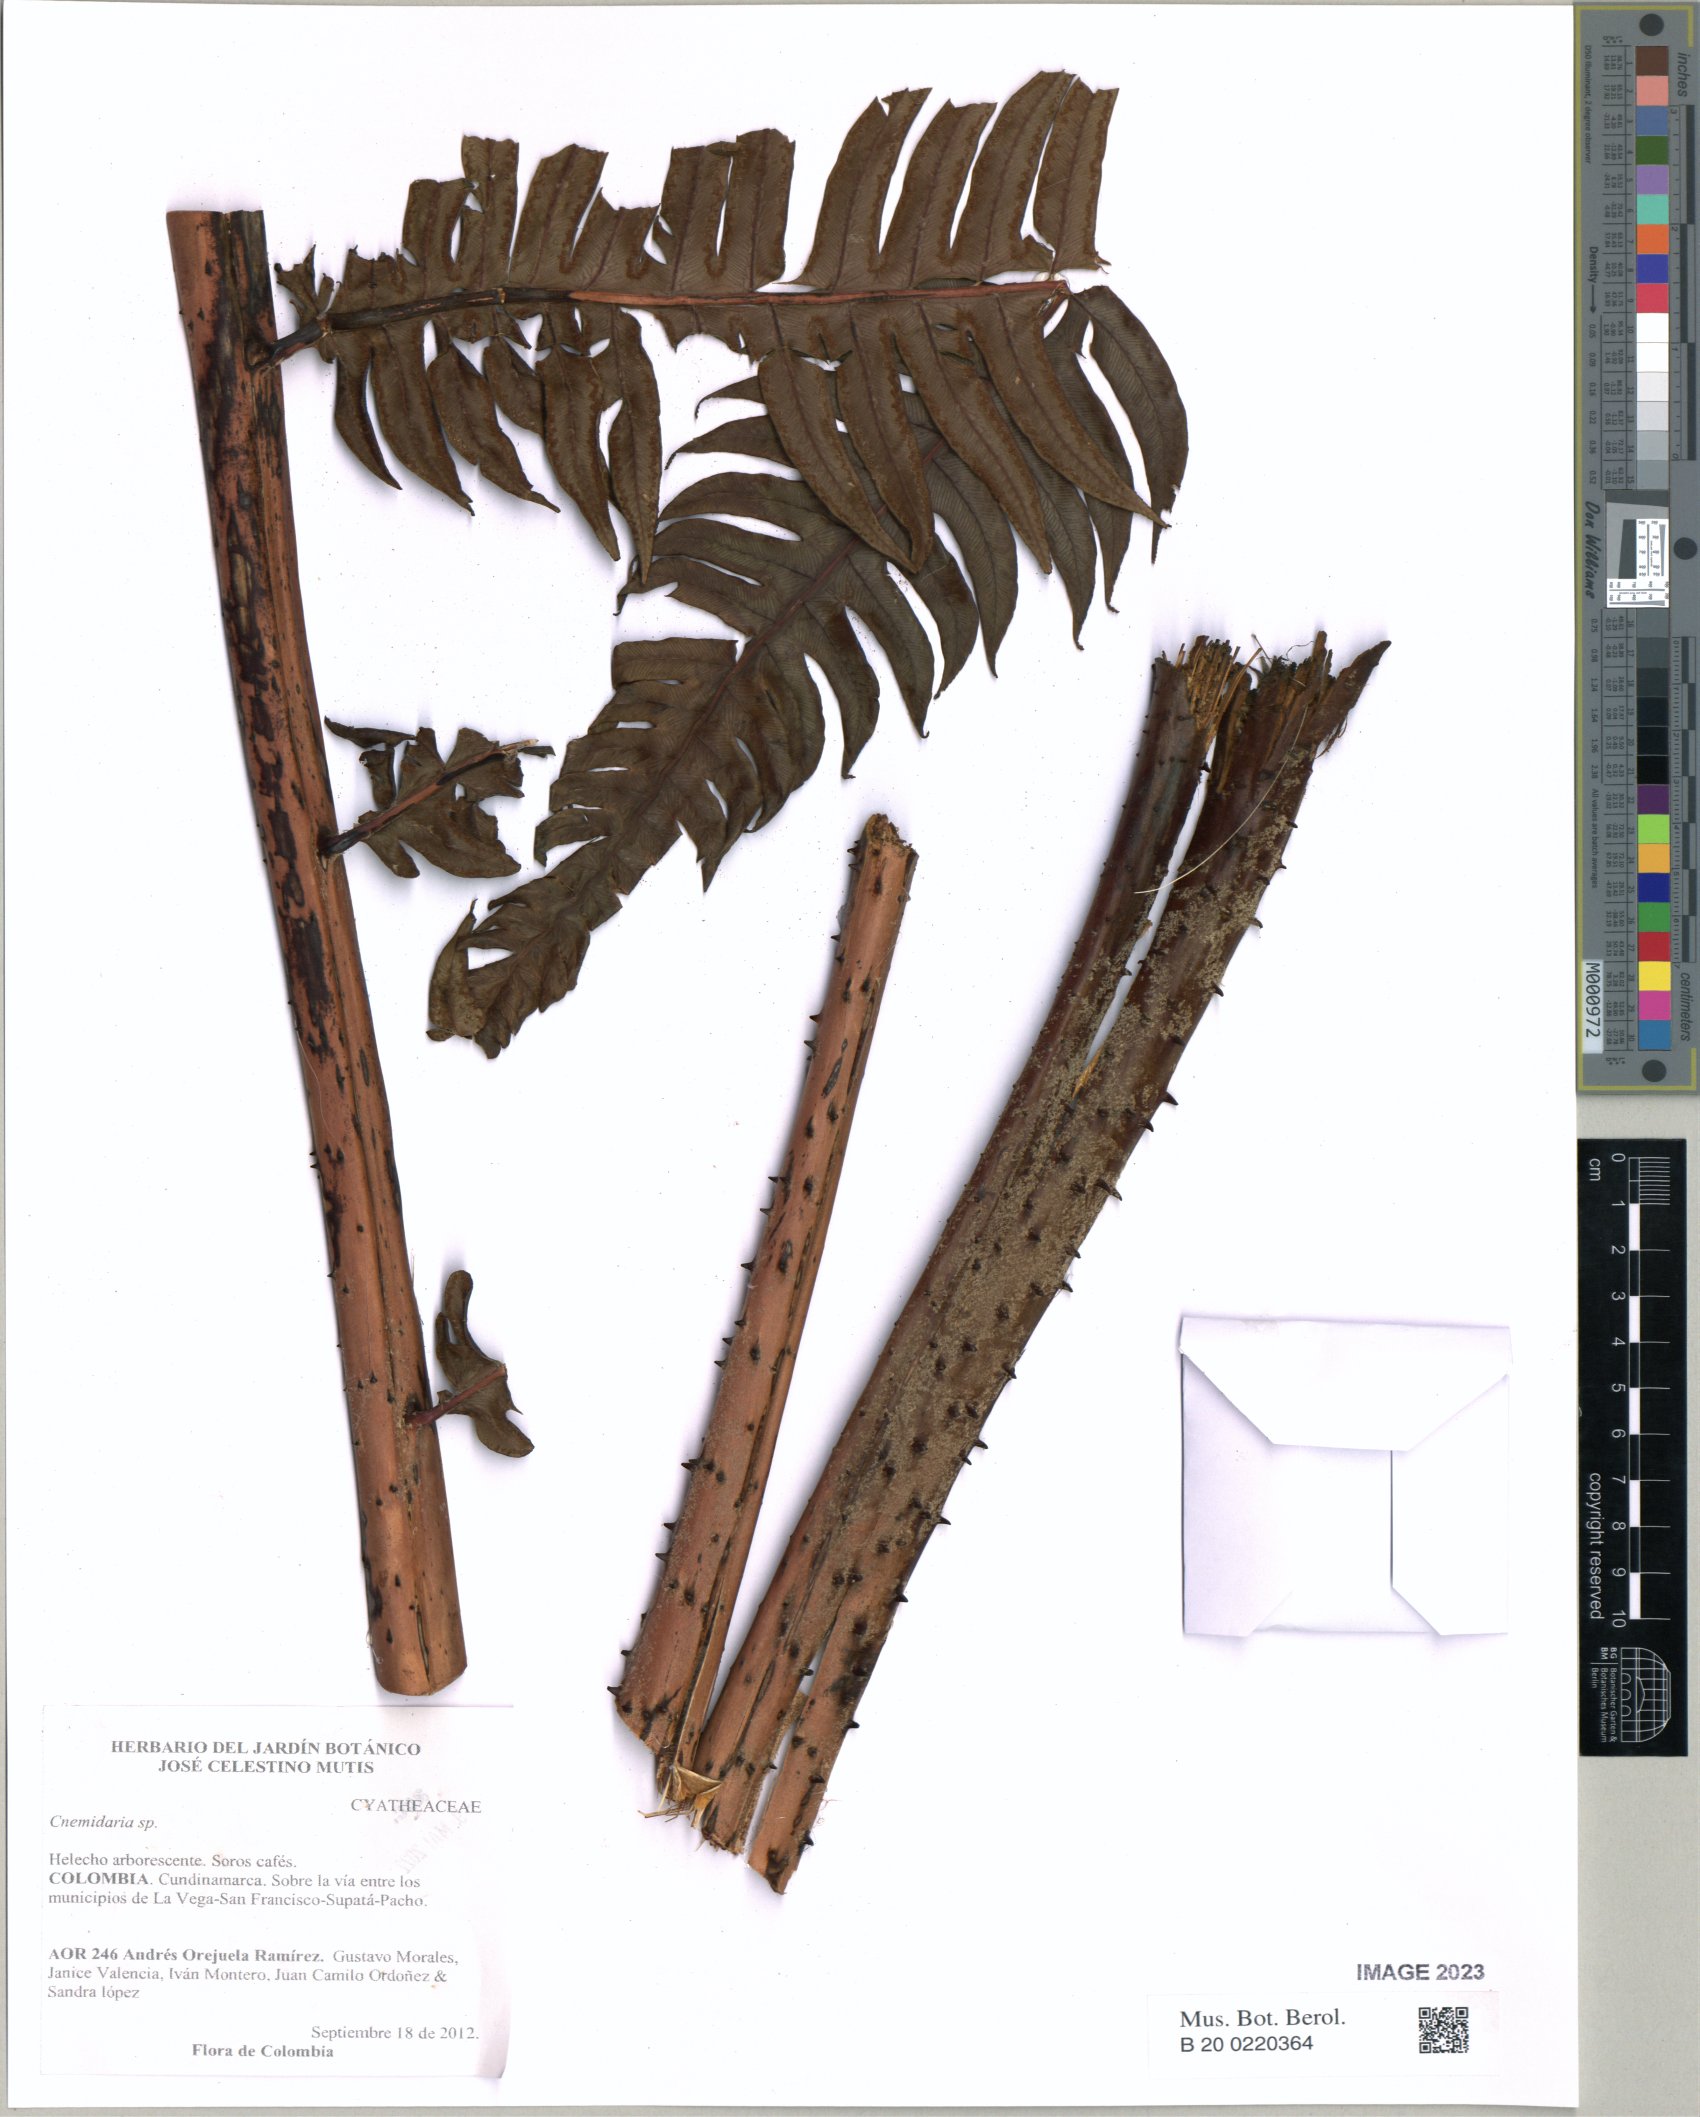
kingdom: Plantae
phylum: Tracheophyta
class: Polypodiopsida
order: Cyatheales
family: Cyatheaceae
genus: Cyathea
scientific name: Cyathea
